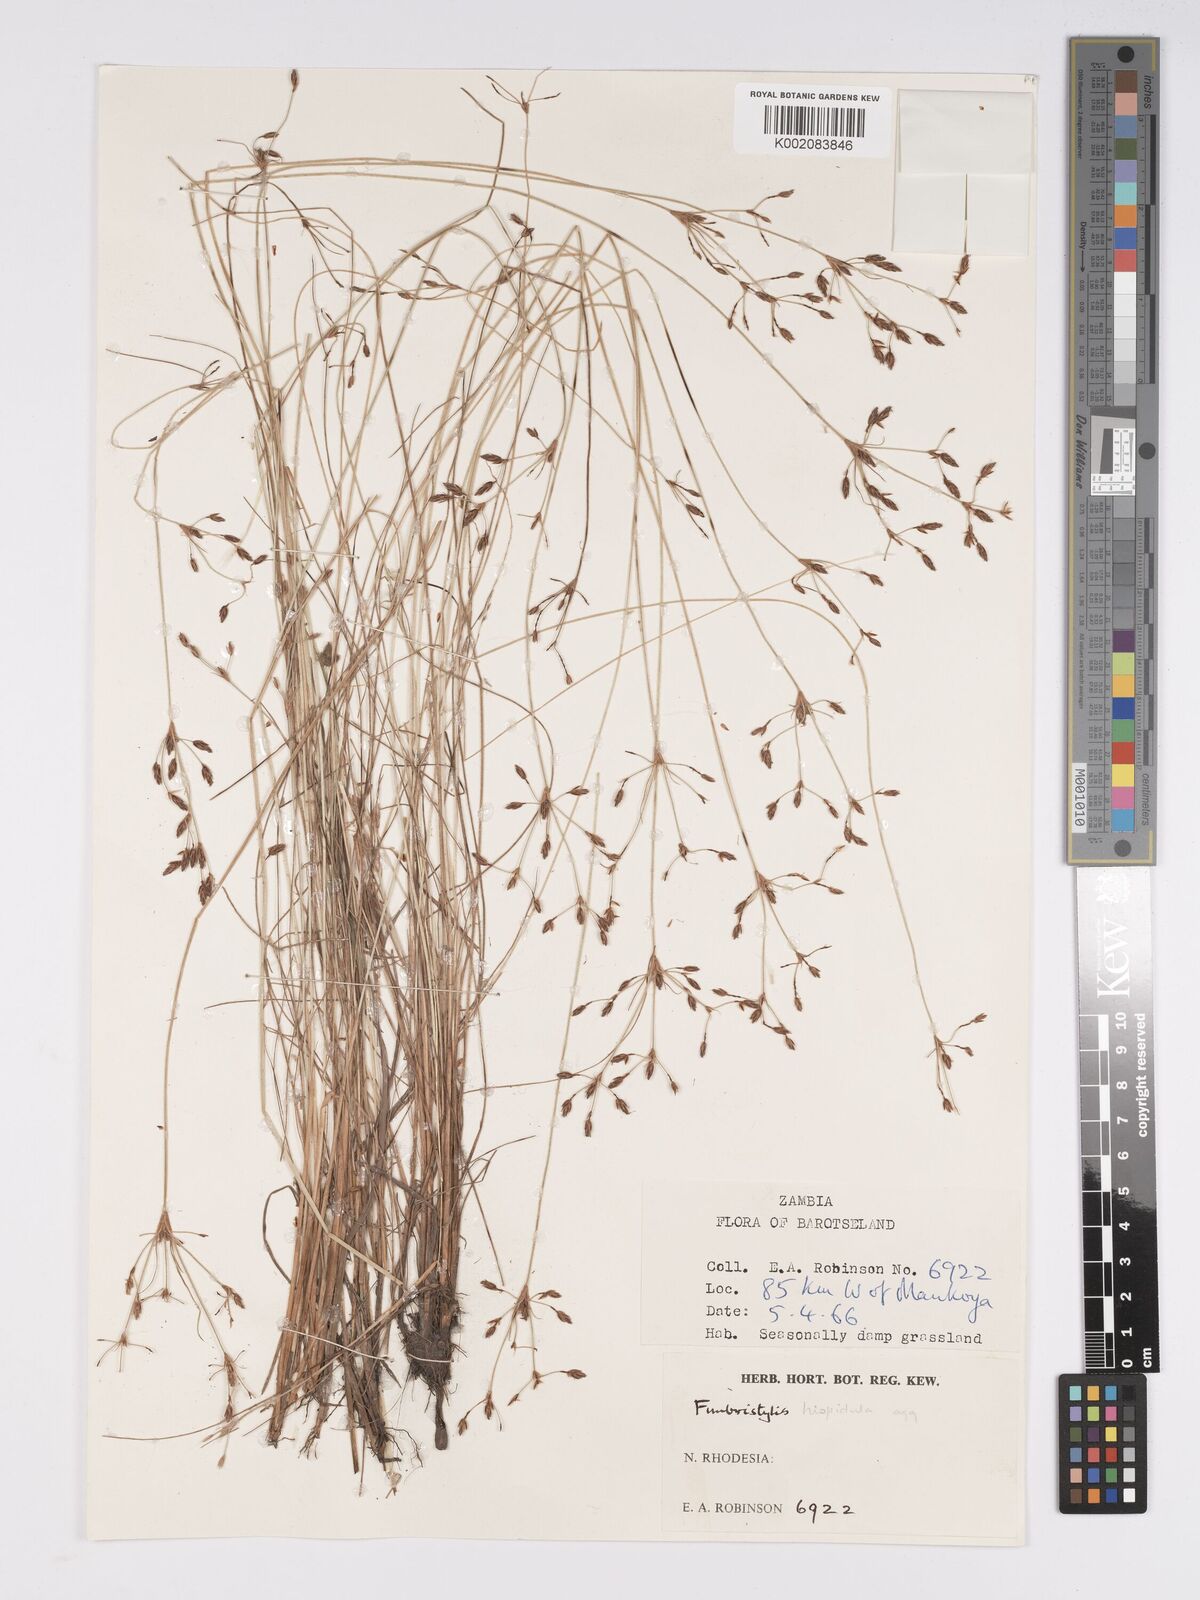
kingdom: Plantae
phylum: Tracheophyta
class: Liliopsida
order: Poales
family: Cyperaceae
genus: Bulbostylis
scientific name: Bulbostylis hispidula
